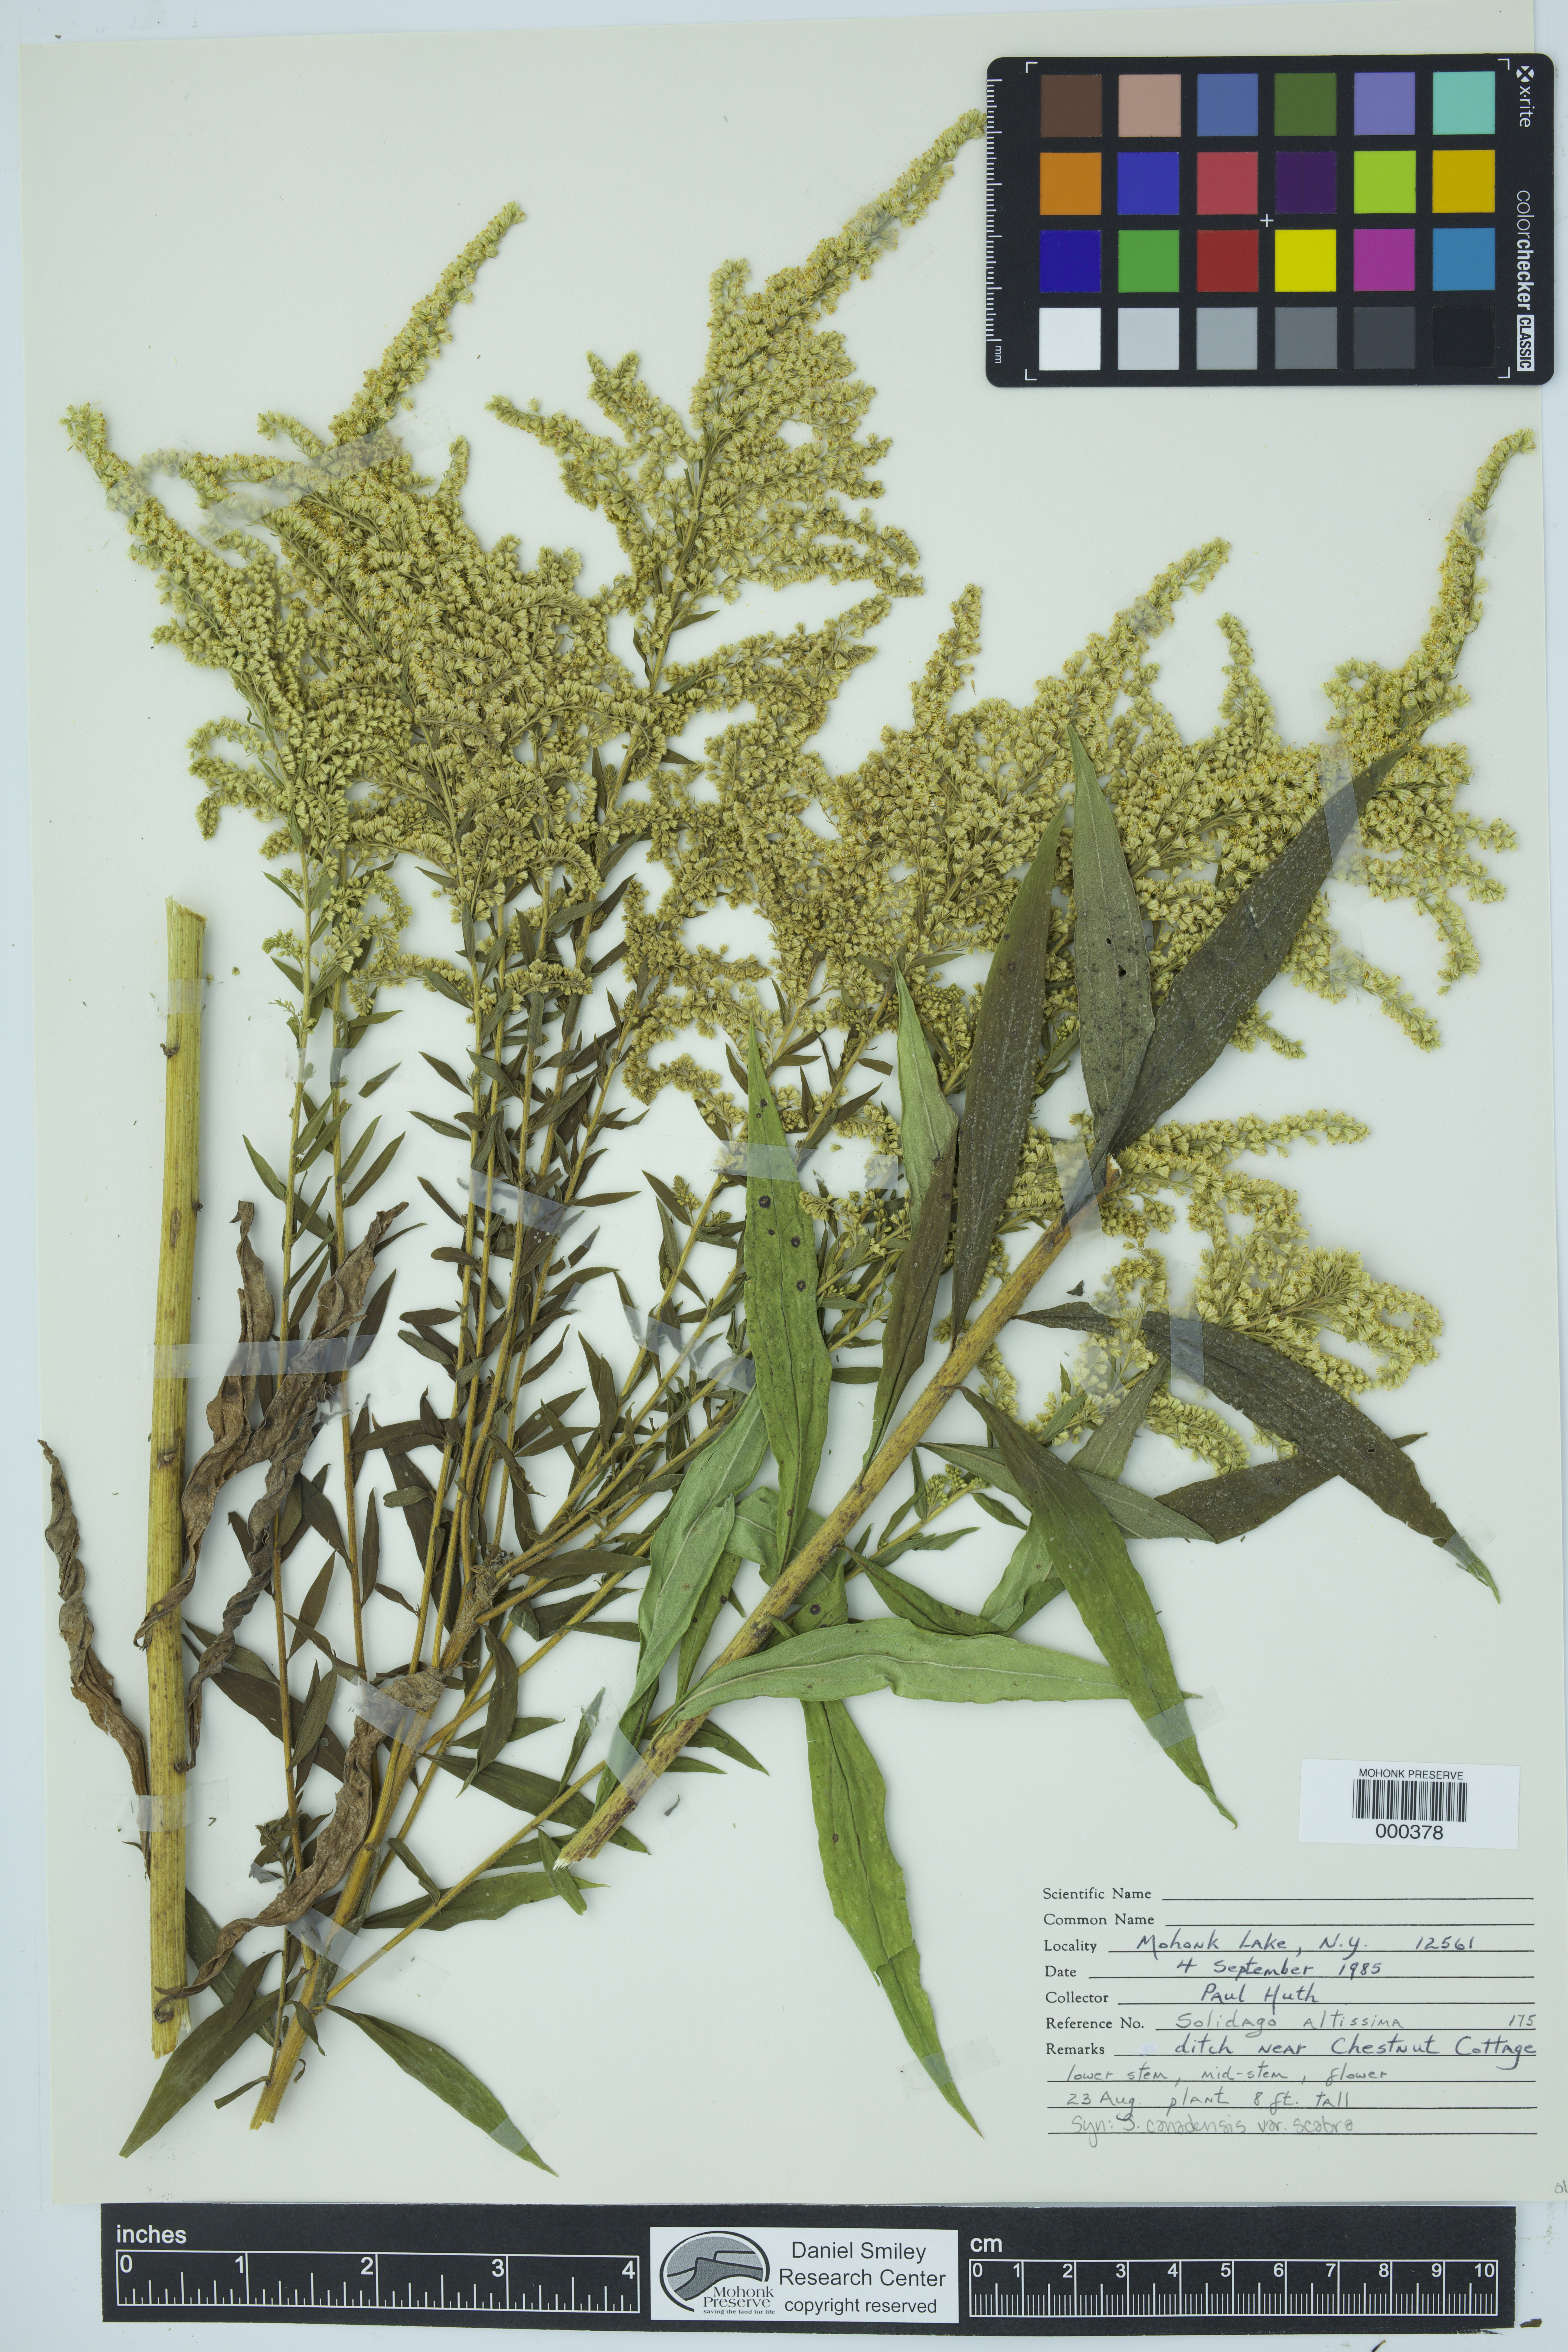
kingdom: Plantae
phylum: Tracheophyta
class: Magnoliopsida
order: Asterales
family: Asteraceae
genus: Solidago
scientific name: Solidago altissima
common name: Late goldenrod
